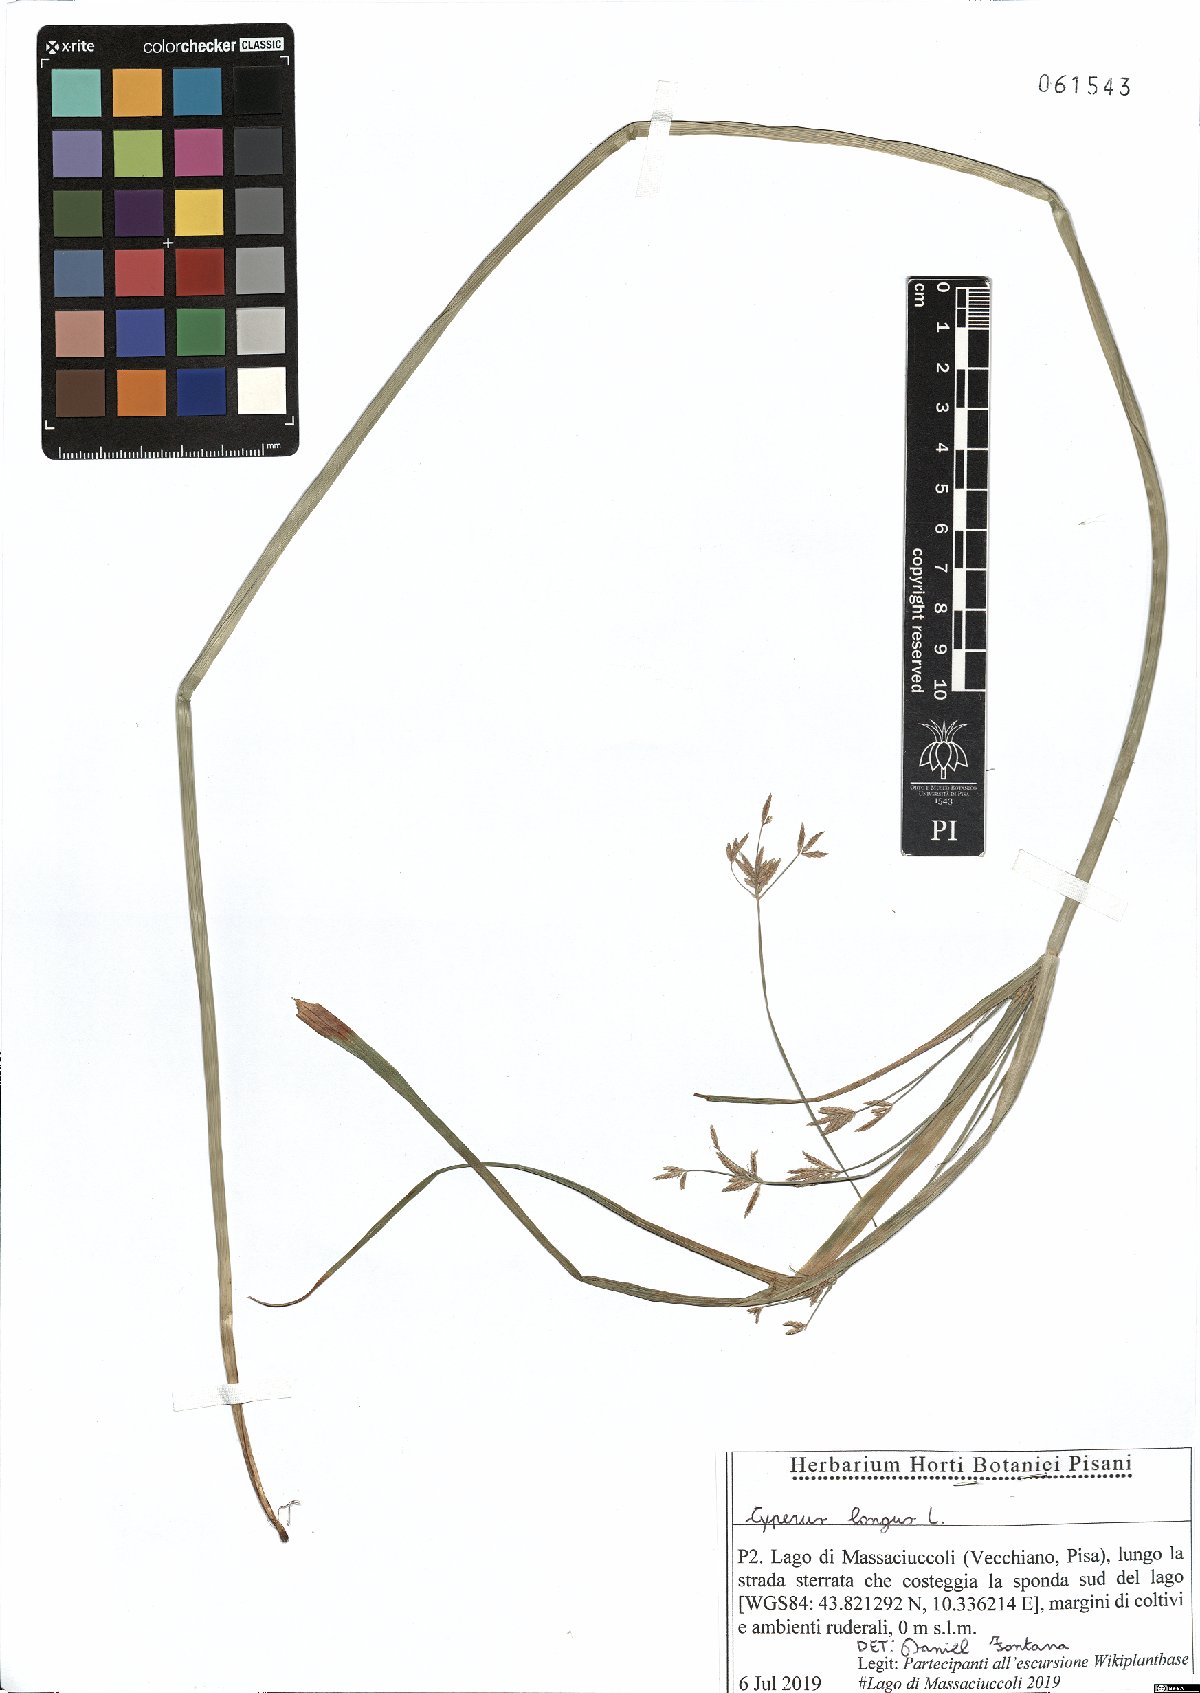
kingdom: Plantae
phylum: Tracheophyta
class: Liliopsida
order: Poales
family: Cyperaceae
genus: Cyperus
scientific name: Cyperus longus
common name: Galingale
